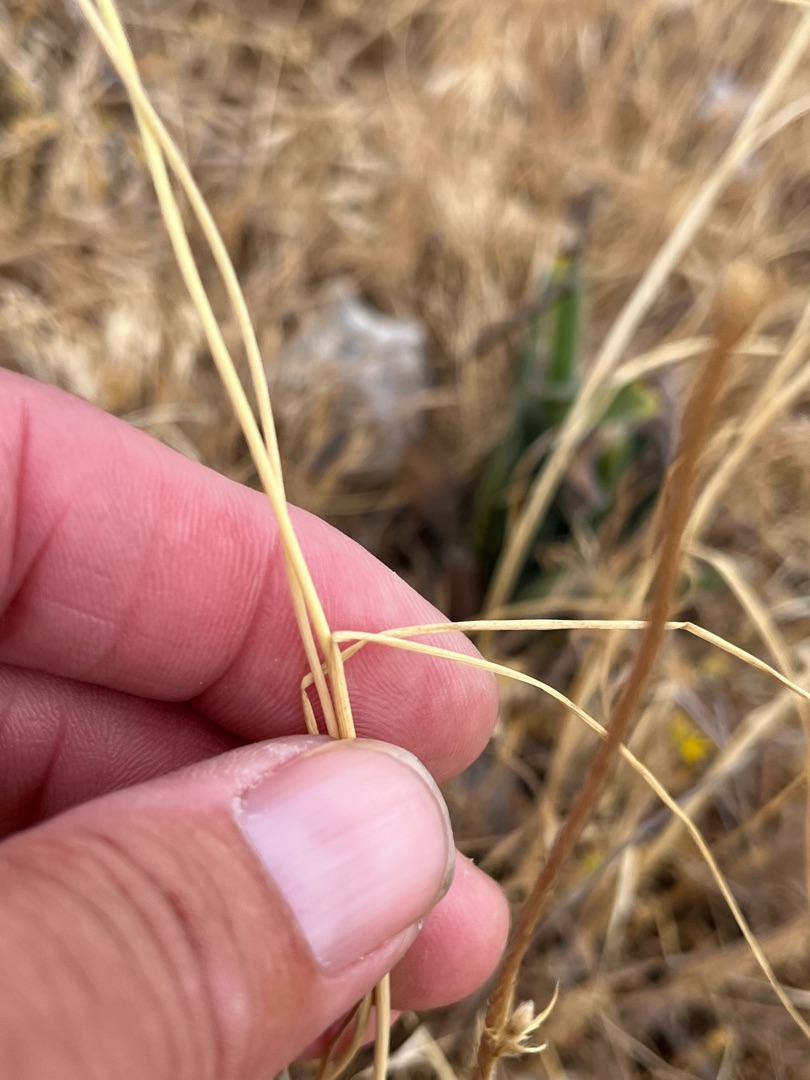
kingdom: Plantae
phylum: Tracheophyta
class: Liliopsida
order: Asparagales
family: Amaryllidaceae
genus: Allium
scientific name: Allium vineale
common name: Sand-løg
